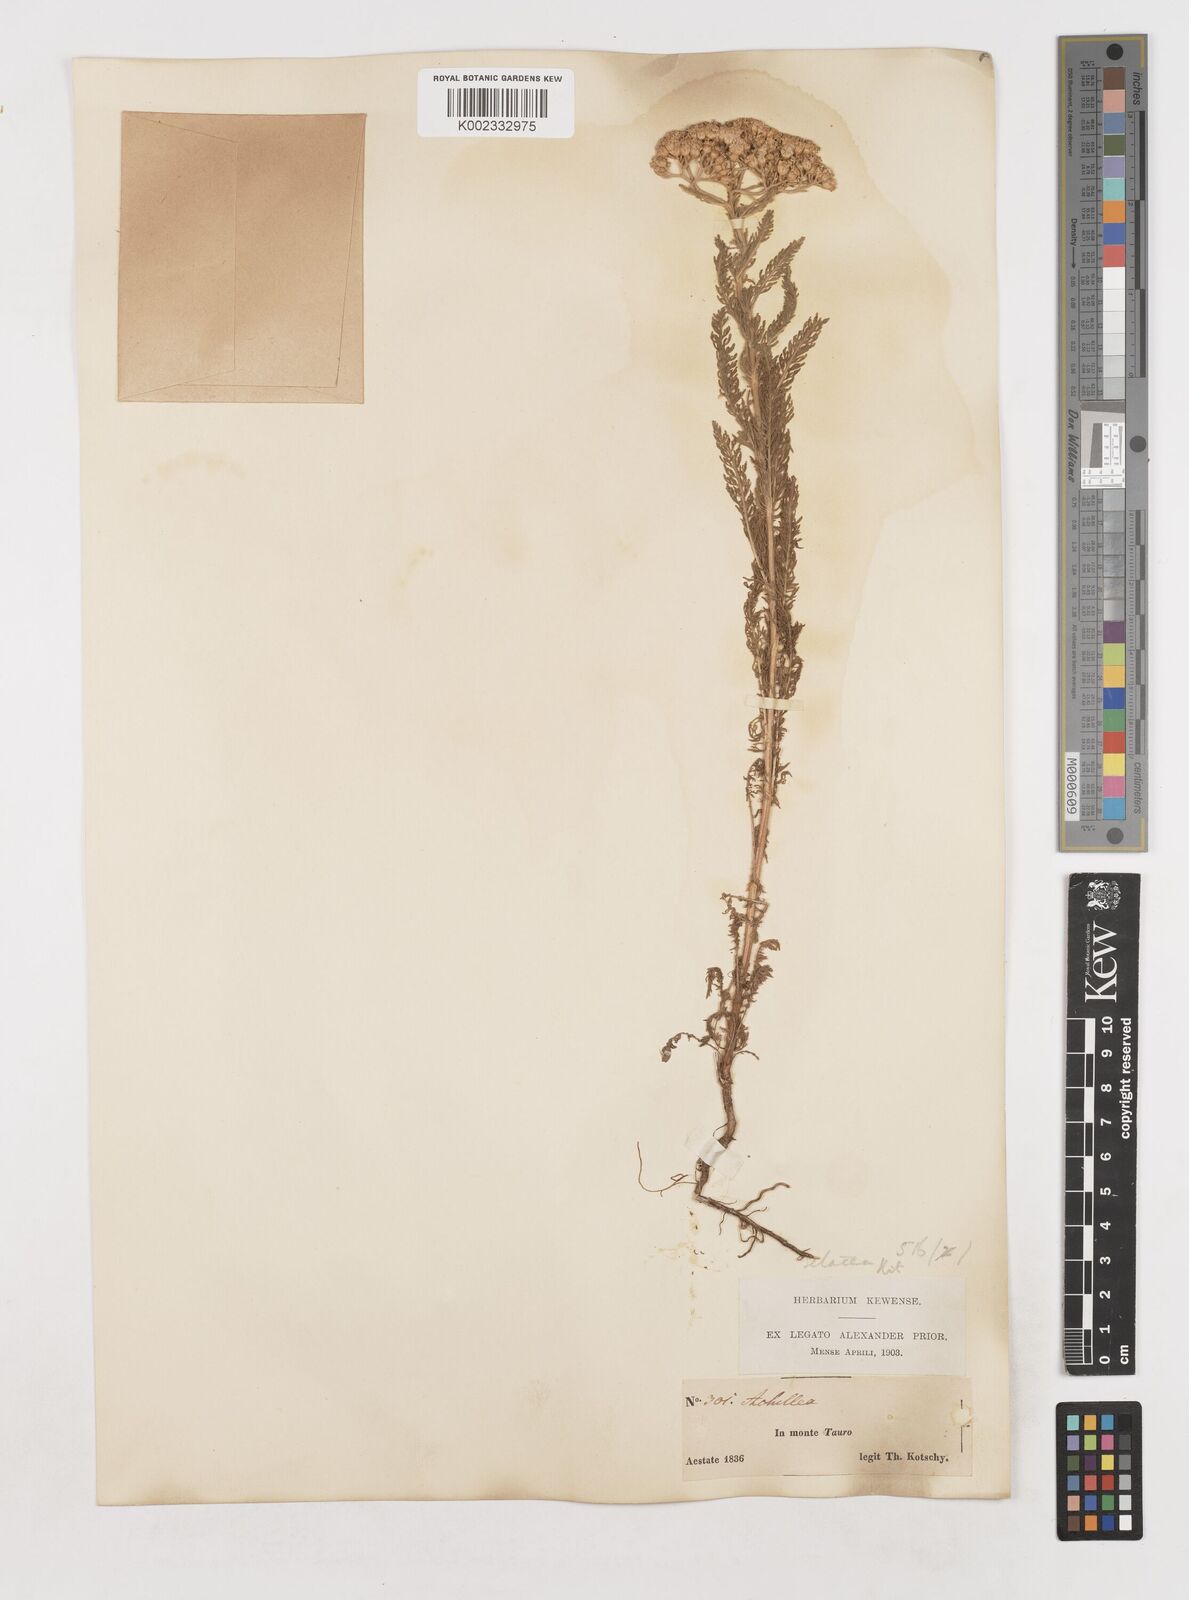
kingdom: Plantae
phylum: Tracheophyta
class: Magnoliopsida
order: Asterales
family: Asteraceae
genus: Achillea
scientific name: Achillea arabica
